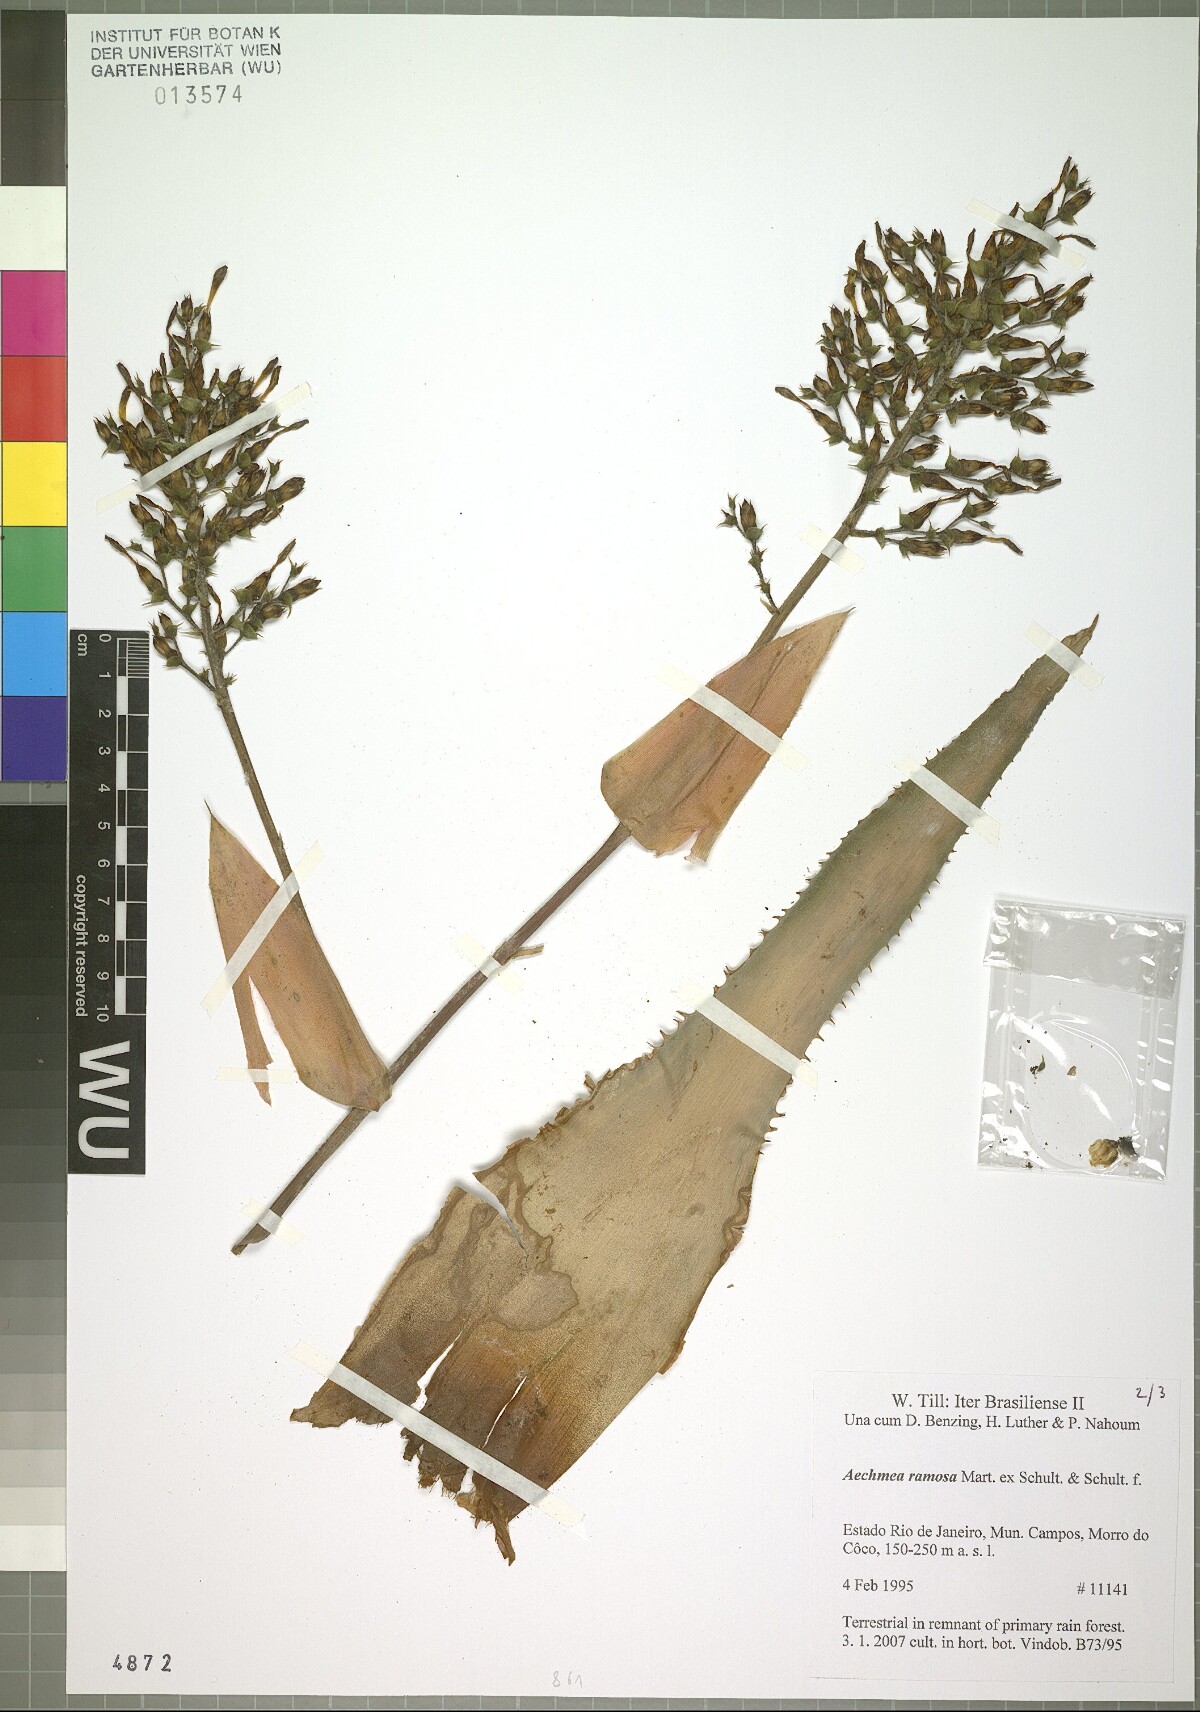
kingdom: Plantae
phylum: Tracheophyta
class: Liliopsida
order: Poales
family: Bromeliaceae
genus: Aechmea
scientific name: Aechmea ramosa
